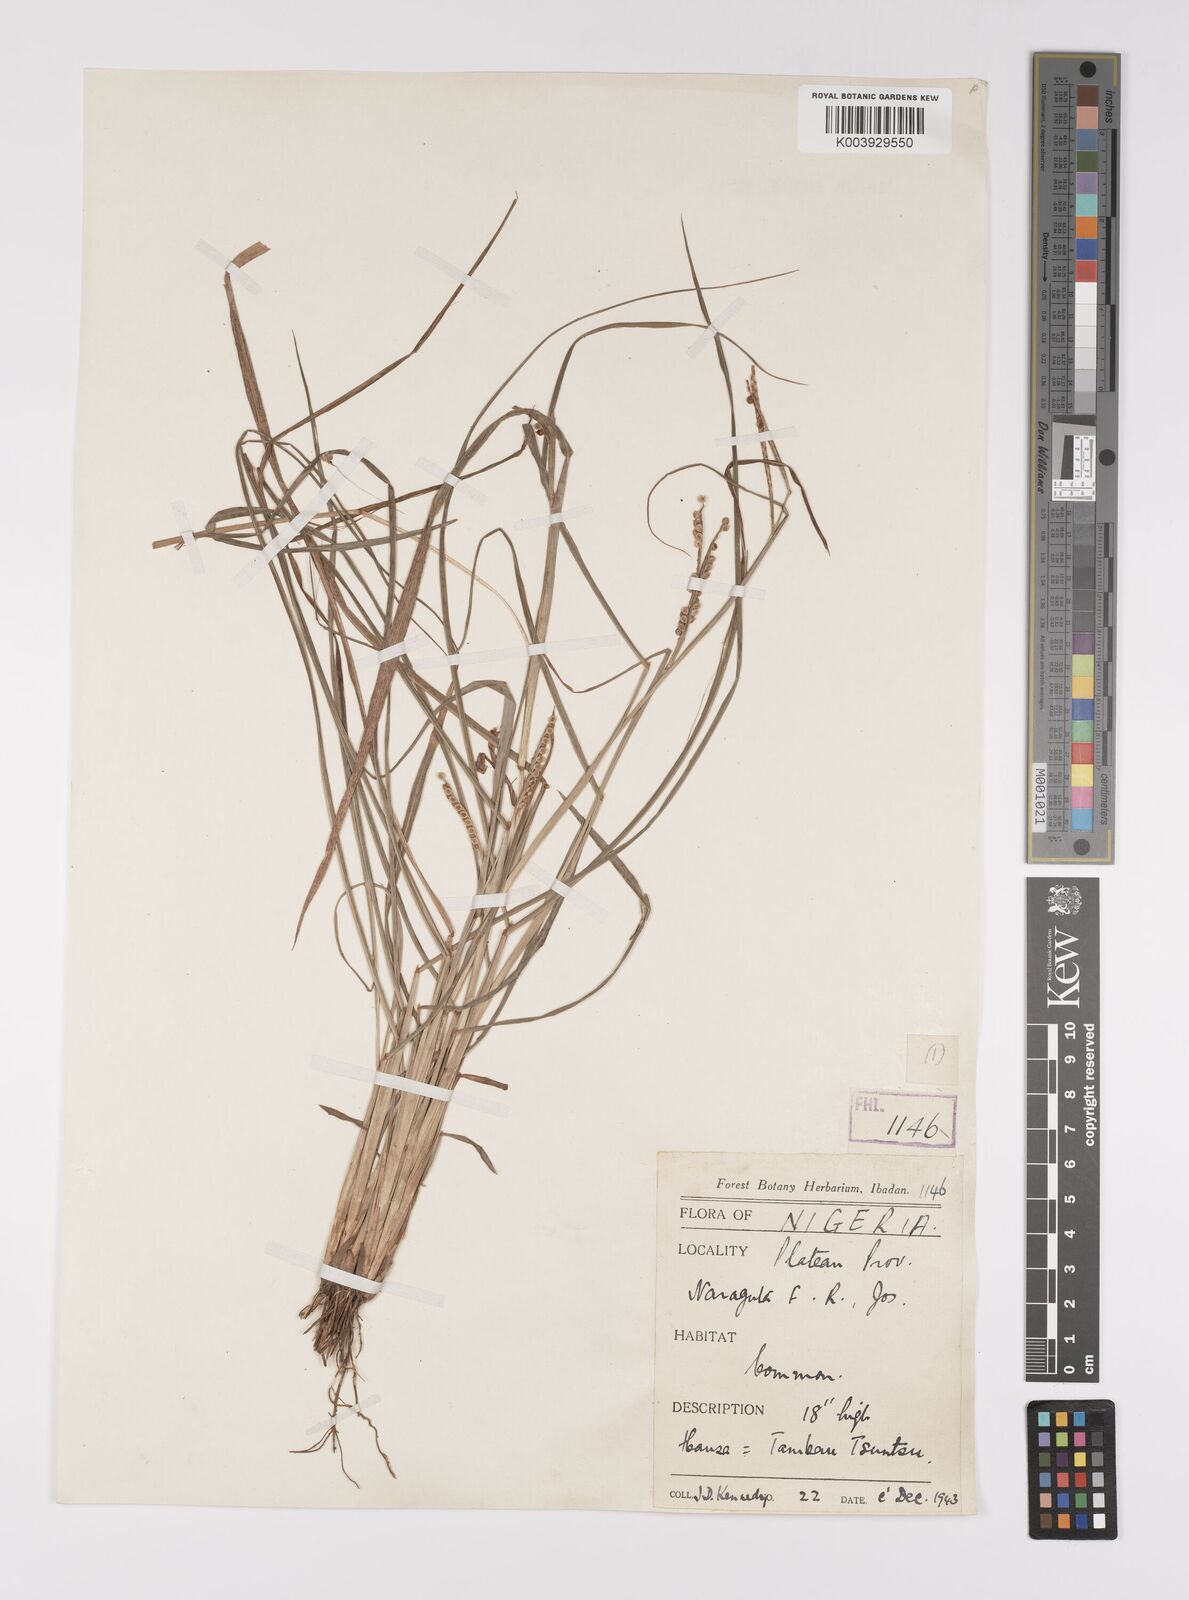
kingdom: Plantae
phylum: Tracheophyta
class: Liliopsida
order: Poales
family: Poaceae
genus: Paspalum
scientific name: Paspalum scrobiculatum
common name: Kodo millet
